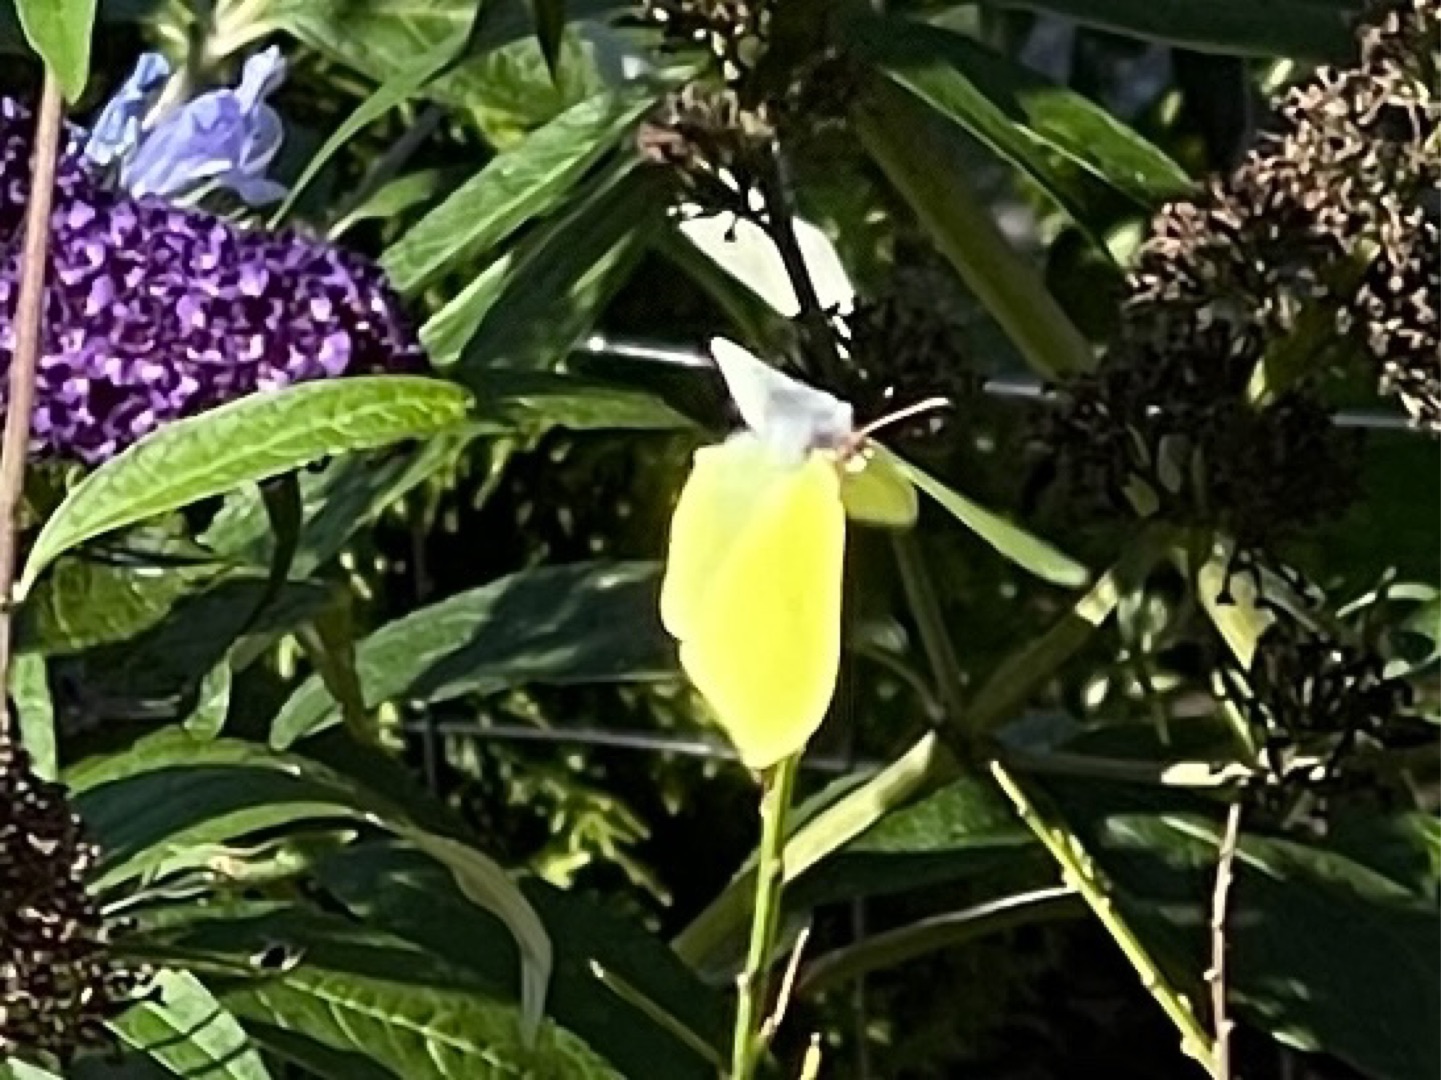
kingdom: Animalia
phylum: Arthropoda
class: Insecta
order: Lepidoptera
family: Pieridae
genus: Gonepteryx
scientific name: Gonepteryx rhamni
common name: Citronsommerfugl
